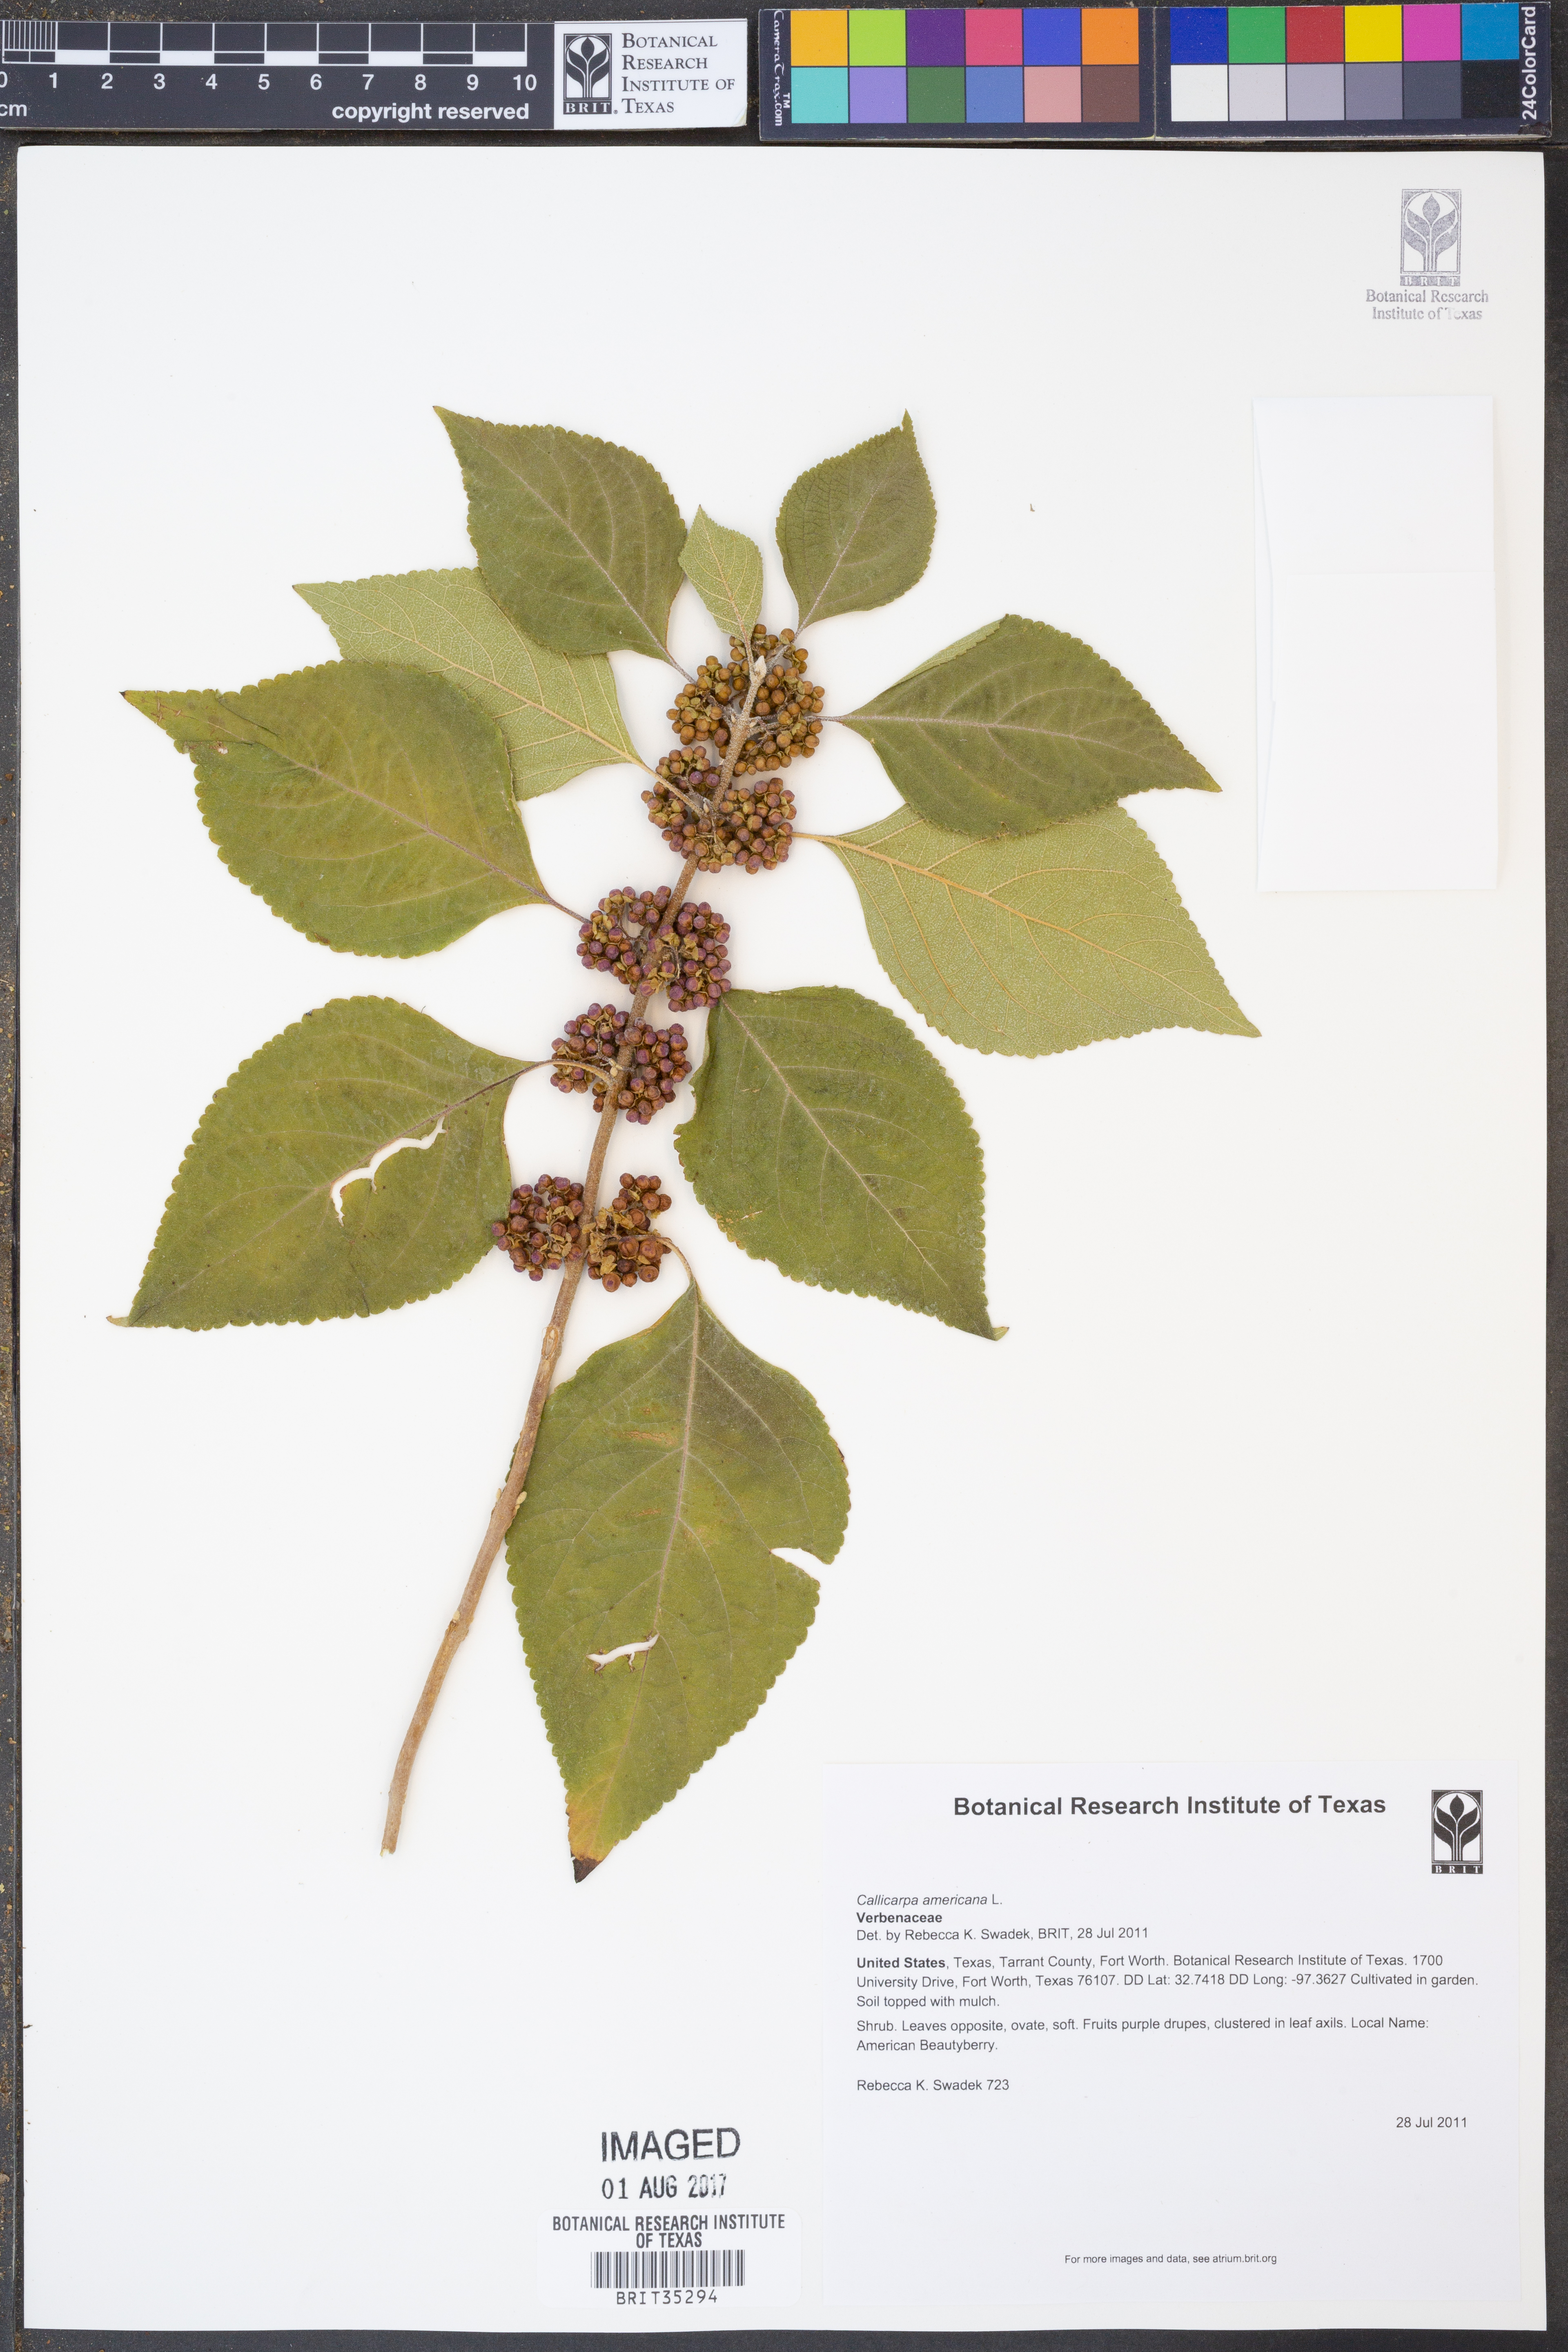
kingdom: Plantae
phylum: Tracheophyta
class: Pinopsida
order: Pinales
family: Cupressaceae
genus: Juniperus
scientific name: Juniperus pinchotii
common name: Pinchot juniper
